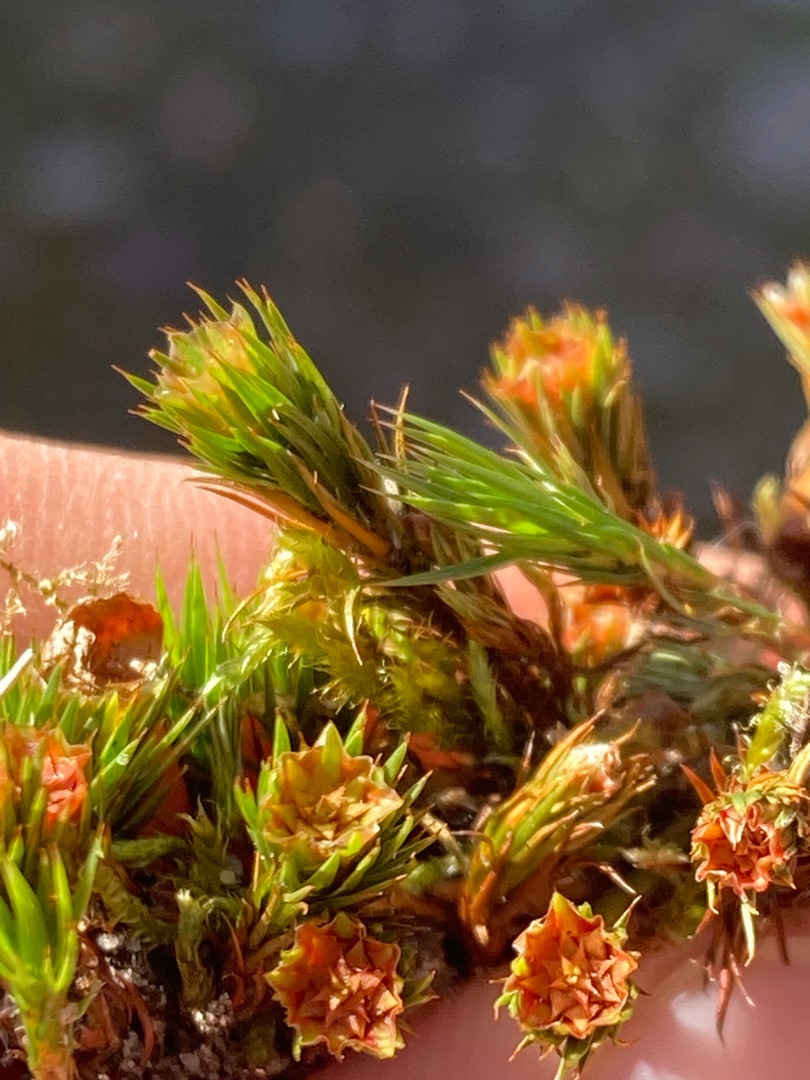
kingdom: Plantae
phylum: Bryophyta
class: Polytrichopsida
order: Polytrichales
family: Polytrichaceae
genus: Polytrichum
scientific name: Polytrichum juniperinum
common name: Ene-jomfruhår
